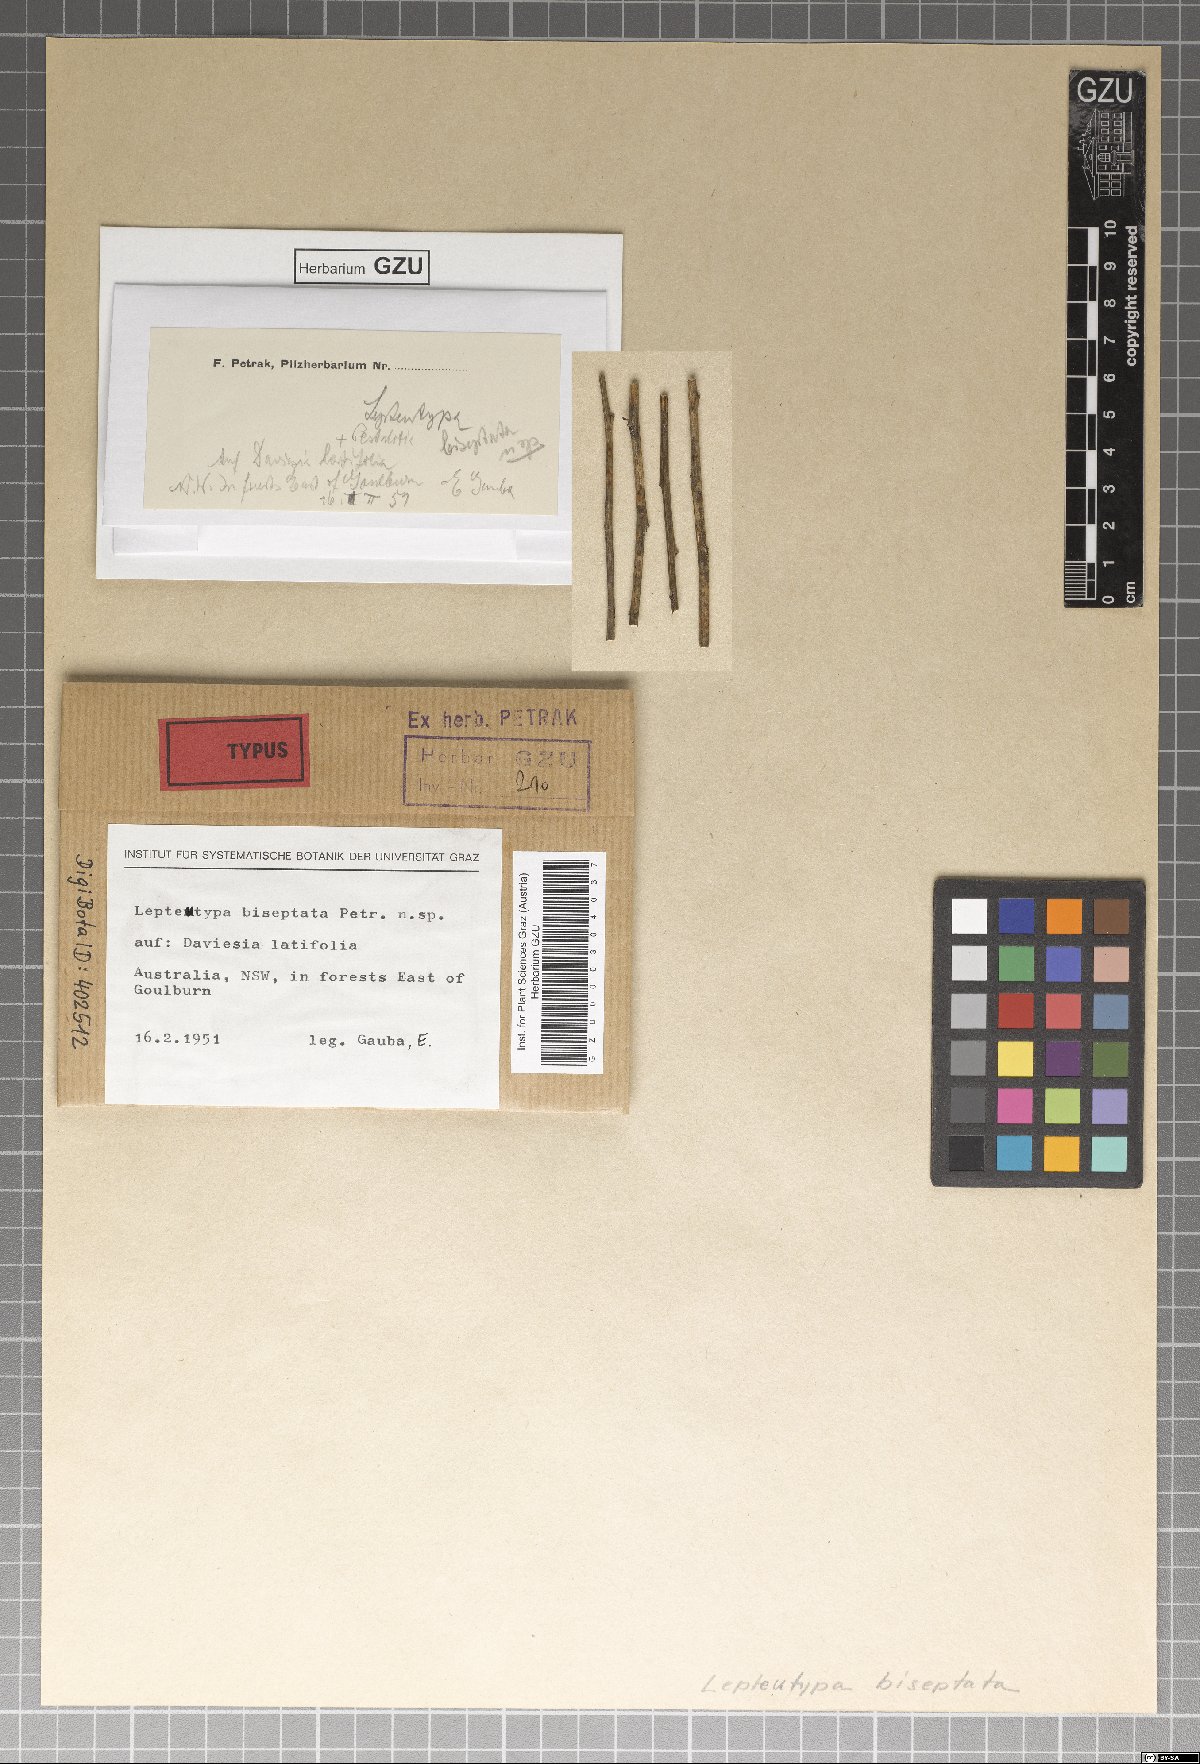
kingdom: Fungi
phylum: Ascomycota
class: Sordariomycetes
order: Amphisphaeriales
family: Amphisphaeriaceae
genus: Lepteutypa
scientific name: Lepteutypa biseptata
